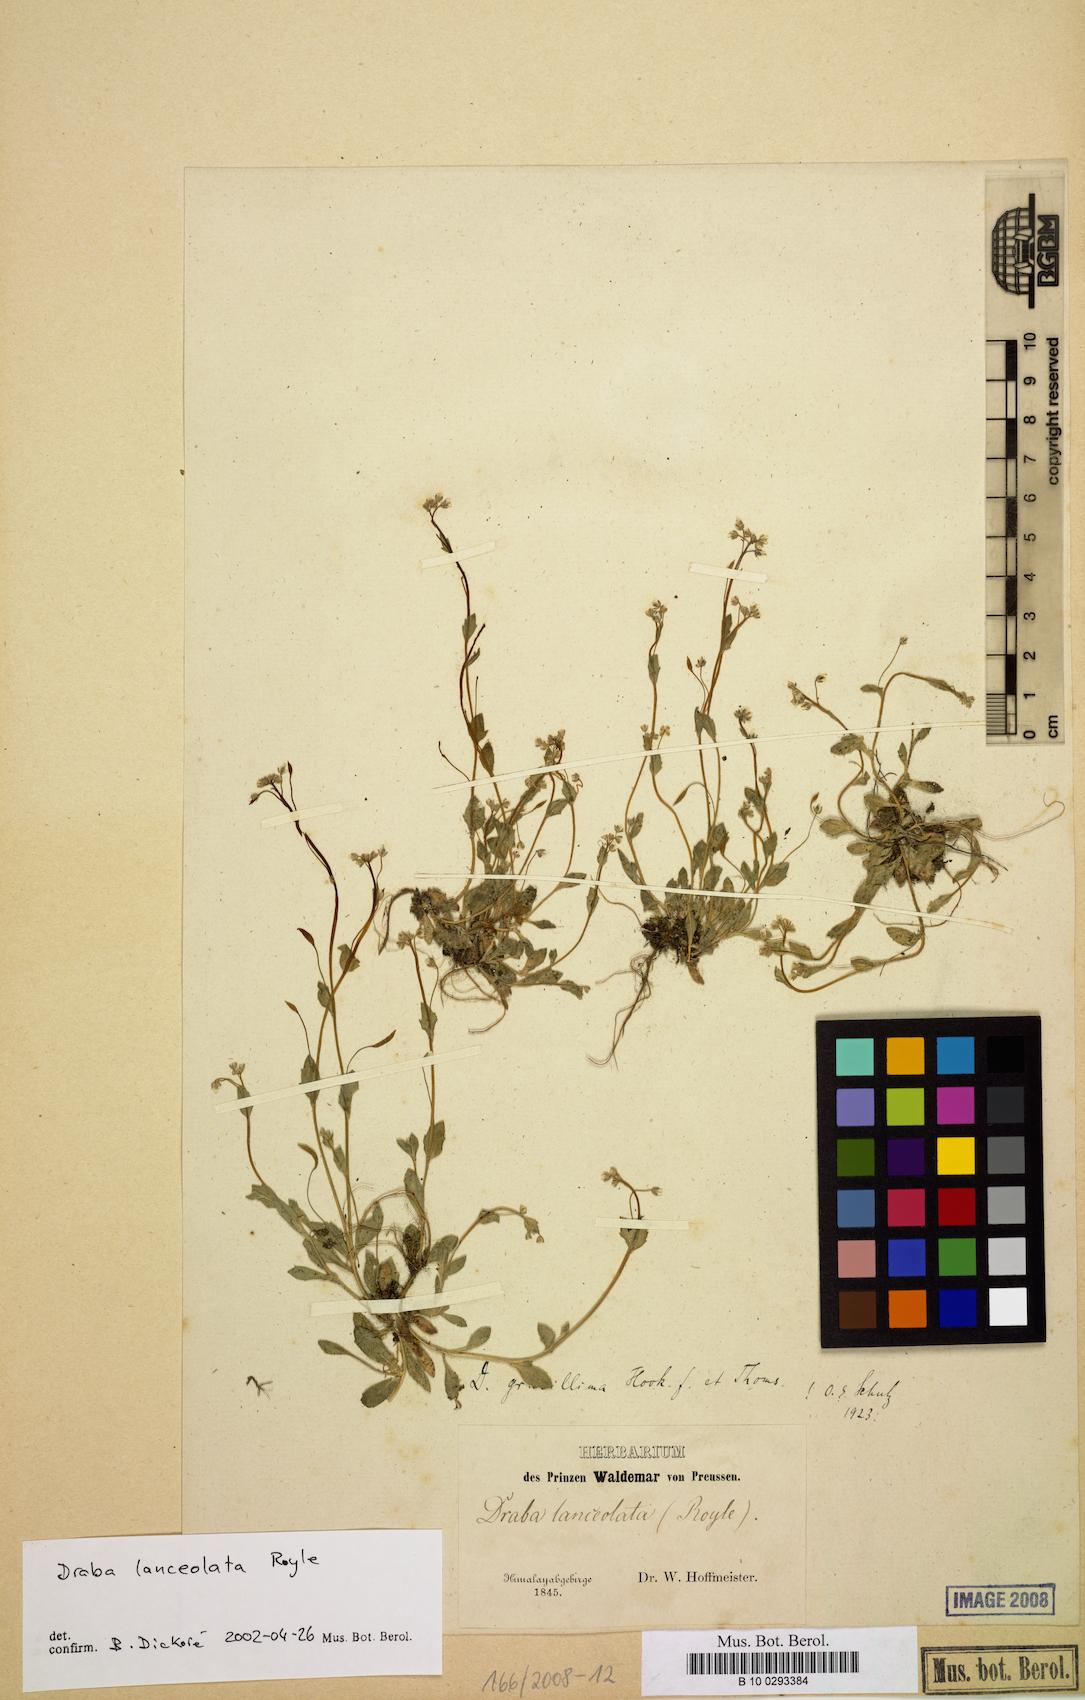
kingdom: Plantae
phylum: Tracheophyta
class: Magnoliopsida
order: Brassicales
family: Brassicaceae
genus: Draba
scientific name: Draba lanceolata
